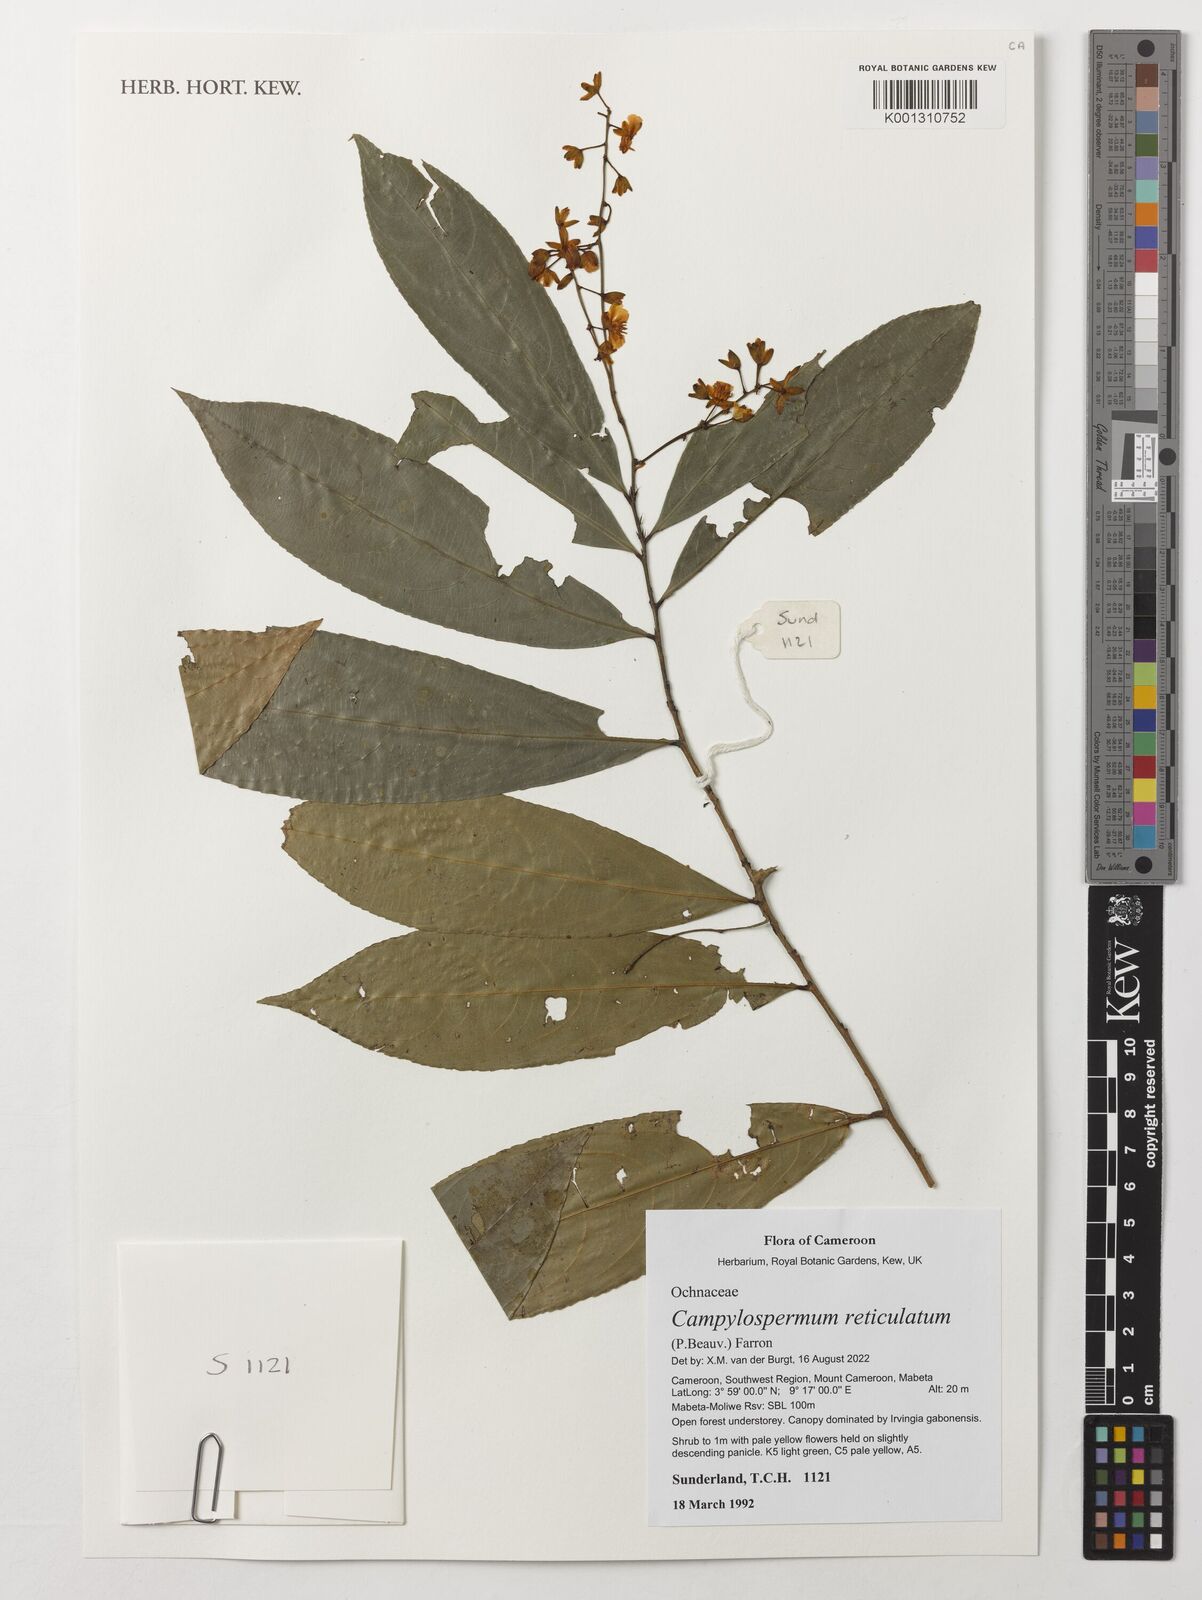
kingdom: Plantae
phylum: Tracheophyta
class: Magnoliopsida
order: Malpighiales
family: Ochnaceae
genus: Campylospermum
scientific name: Campylospermum reticulatum
